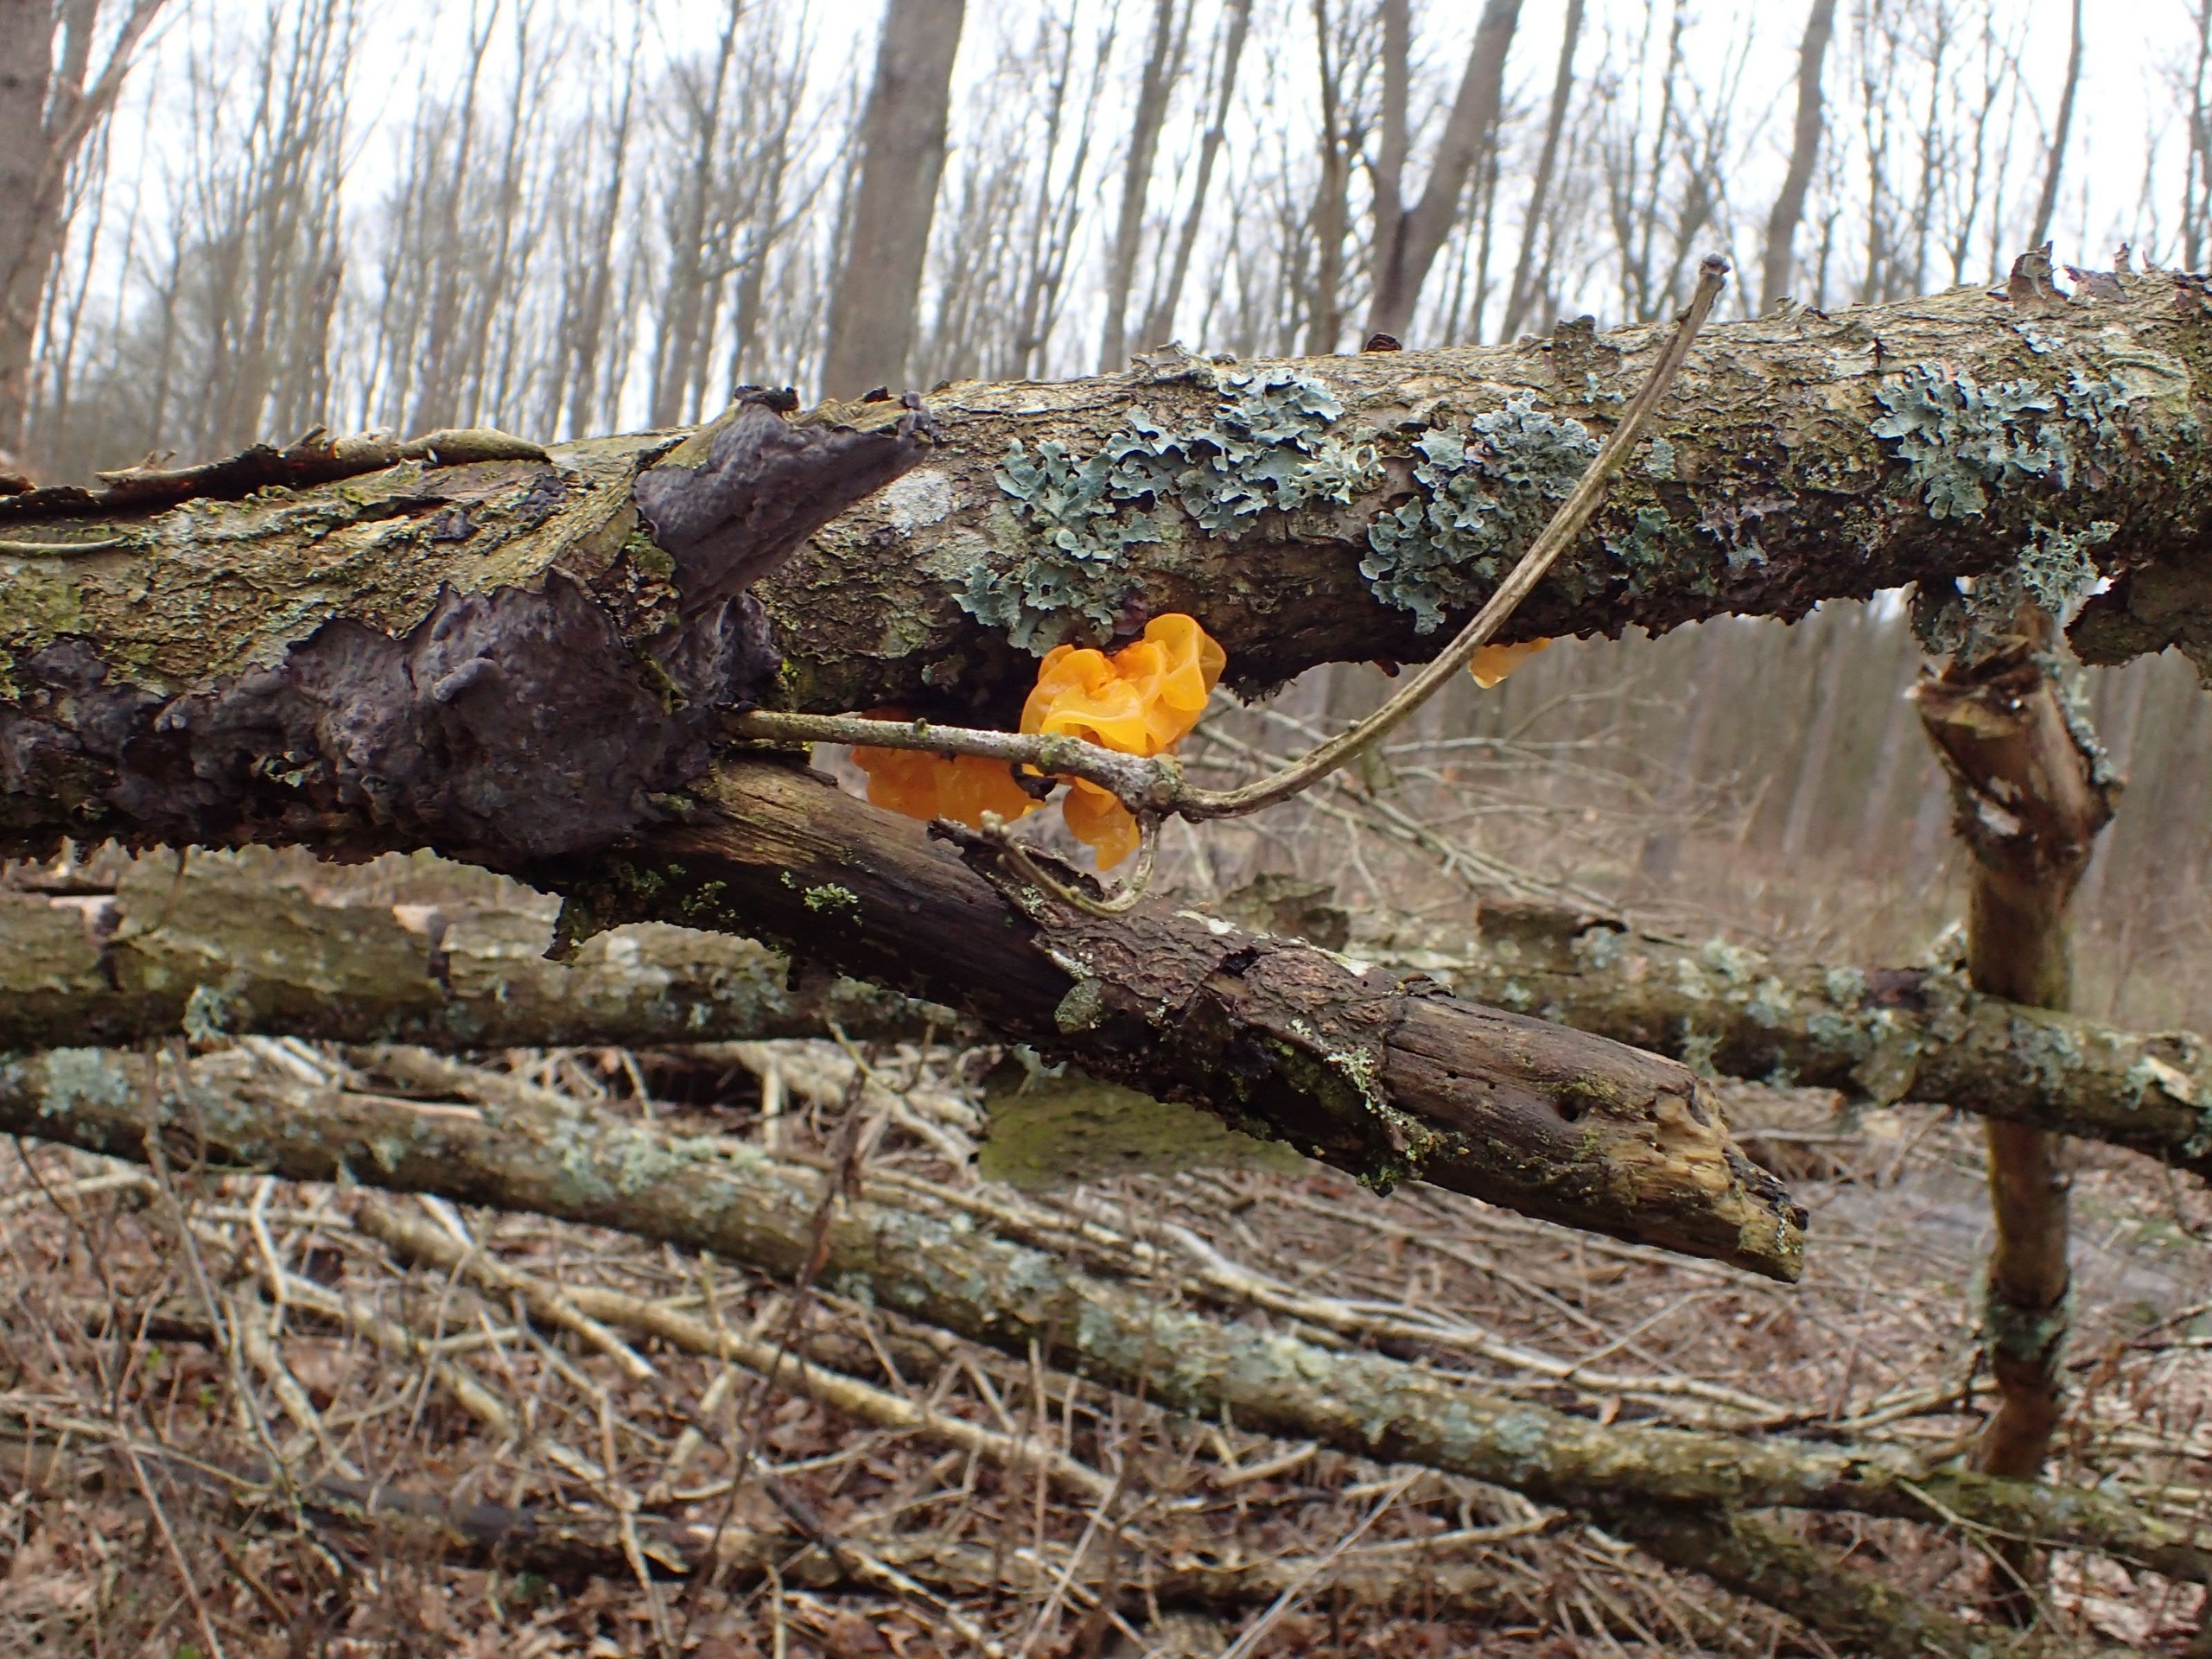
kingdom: Fungi
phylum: Basidiomycota
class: Tremellomycetes
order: Tremellales
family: Tremellaceae
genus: Tremella
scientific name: Tremella mesenterica
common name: Gul bævresvamp
